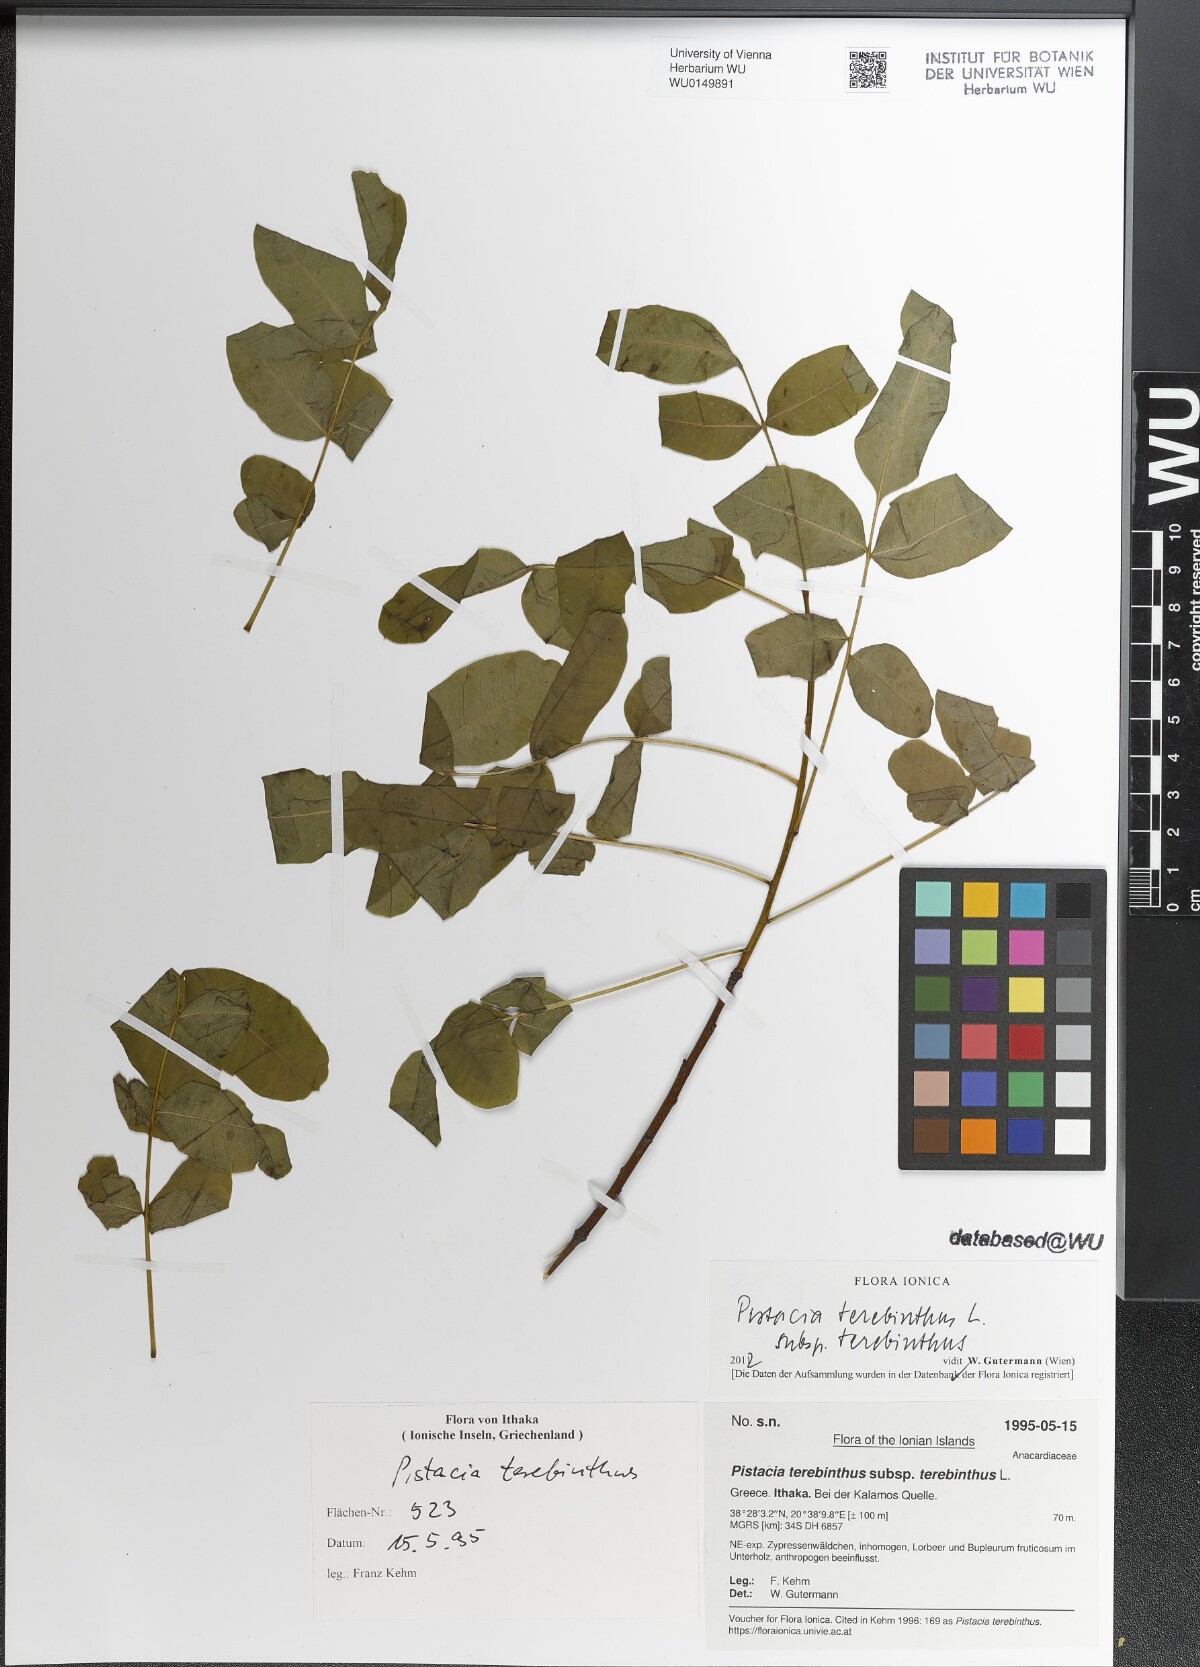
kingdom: Plantae
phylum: Tracheophyta
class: Magnoliopsida
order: Sapindales
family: Anacardiaceae
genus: Pistacia
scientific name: Pistacia terebinthus
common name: Terebinth
